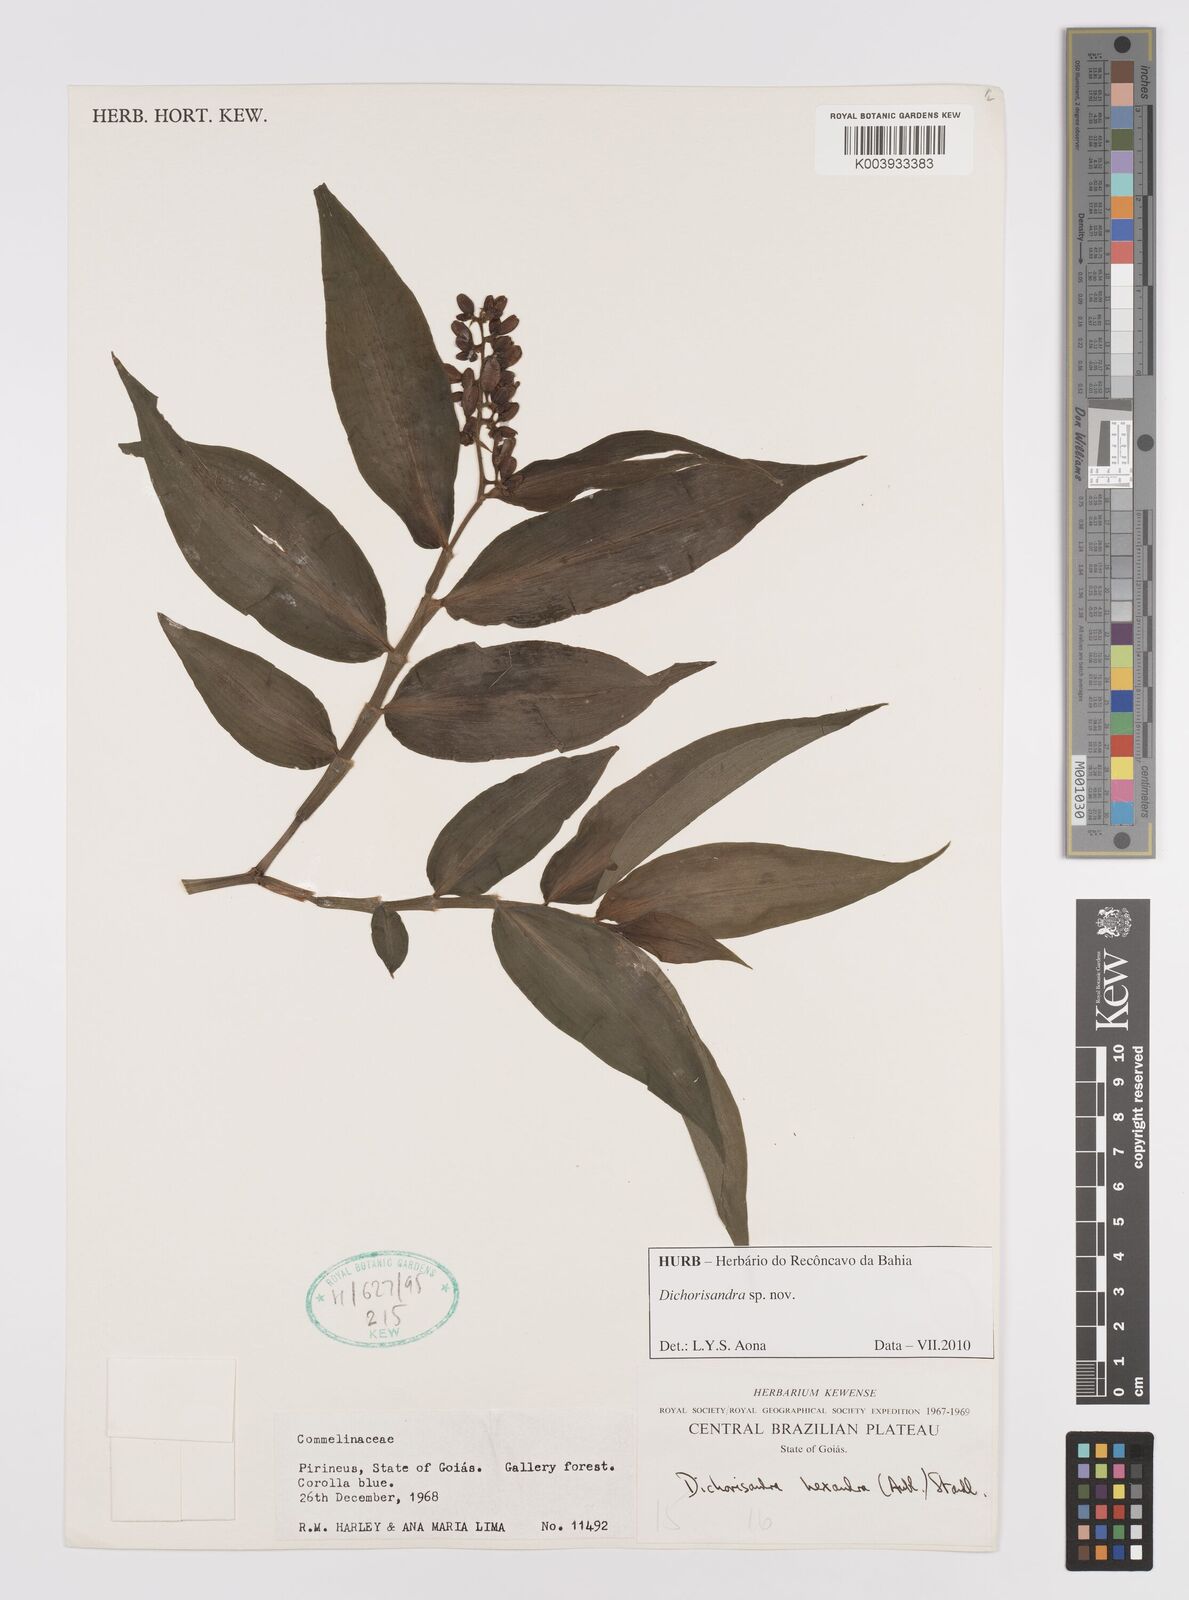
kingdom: Plantae
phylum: Tracheophyta
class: Liliopsida
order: Commelinales
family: Commelinaceae
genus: Dichorisandra
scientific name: Dichorisandra
